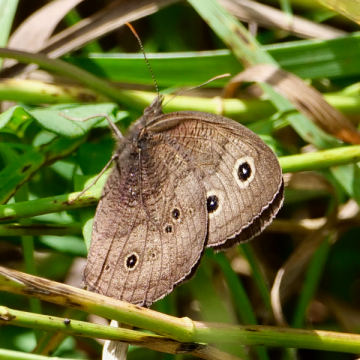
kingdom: Animalia
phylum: Arthropoda
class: Insecta
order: Lepidoptera
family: Nymphalidae
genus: Cercyonis
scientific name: Cercyonis pegala
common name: Common Wood-Nymph
